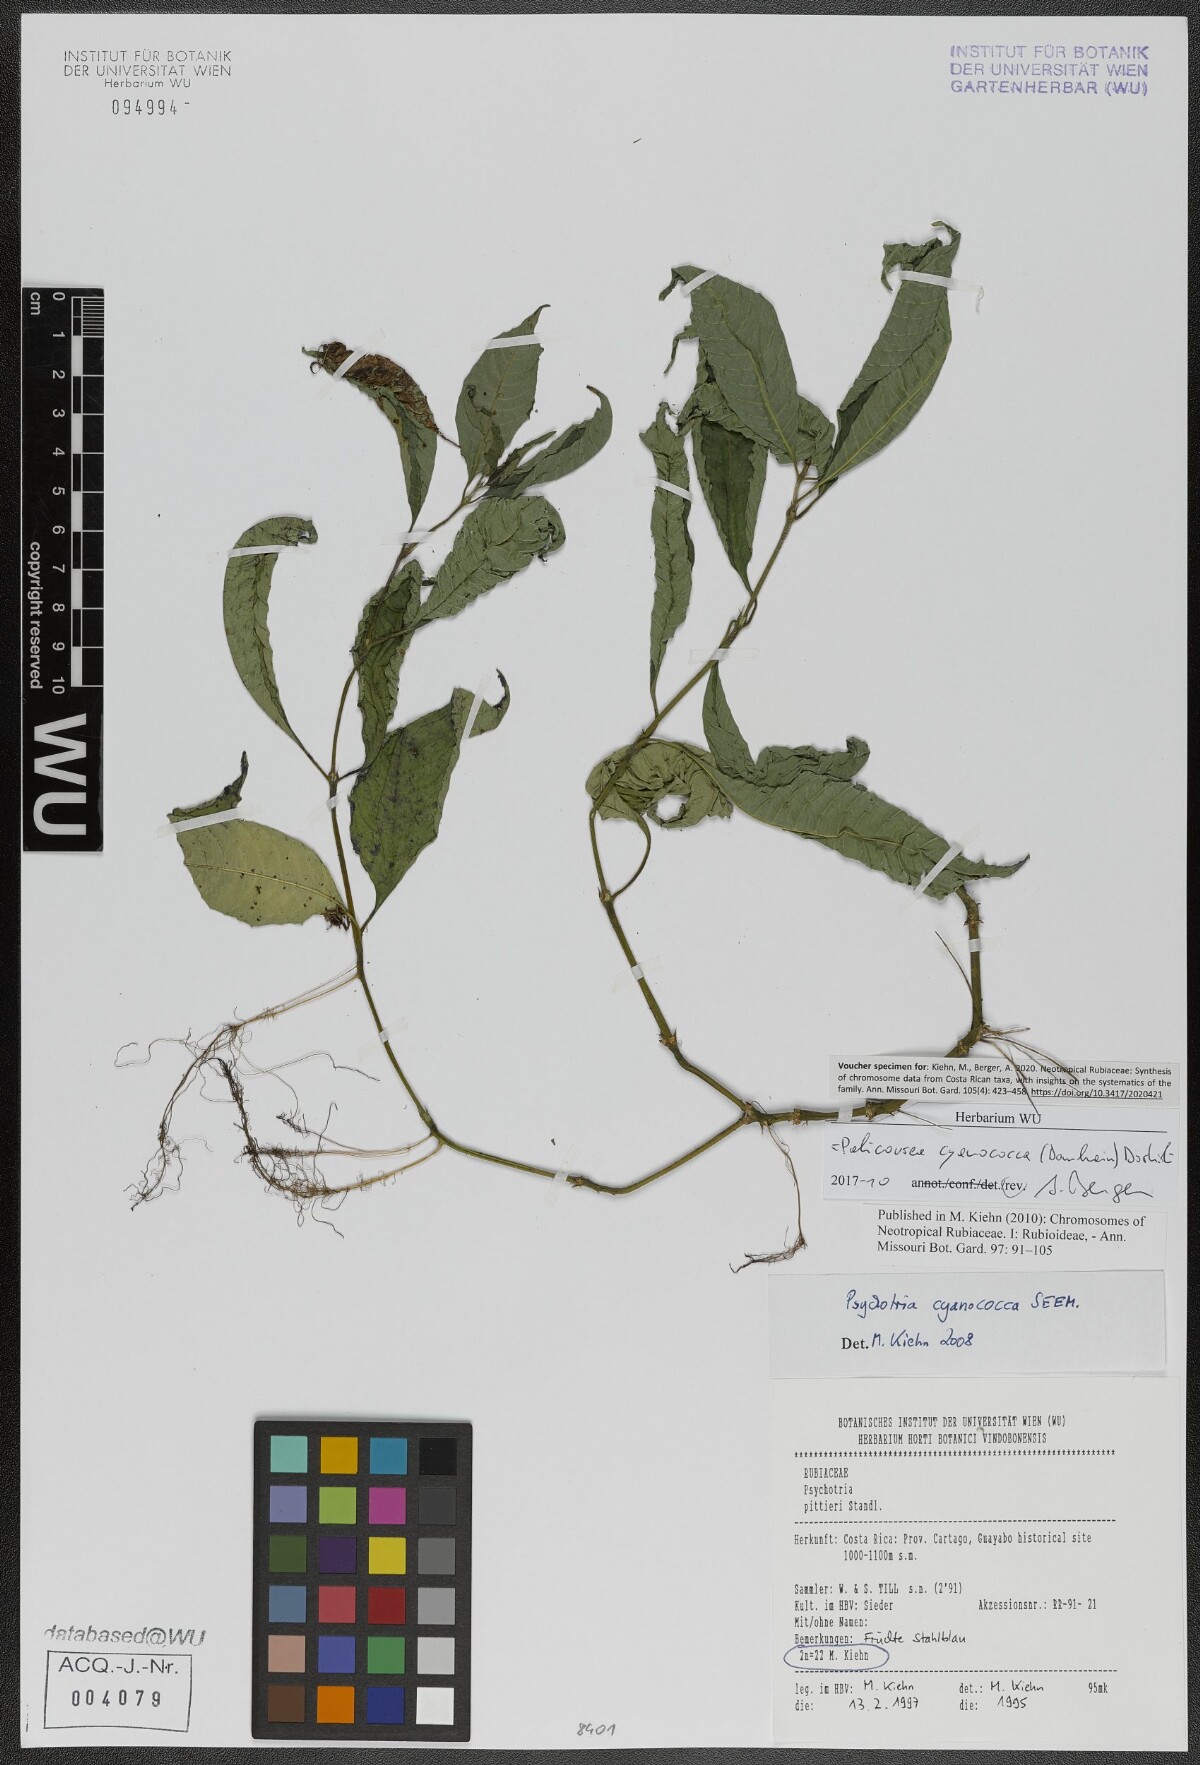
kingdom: Plantae
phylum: Tracheophyta
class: Magnoliopsida
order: Gentianales
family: Rubiaceae
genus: Palicourea
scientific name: Palicourea cyanococca
